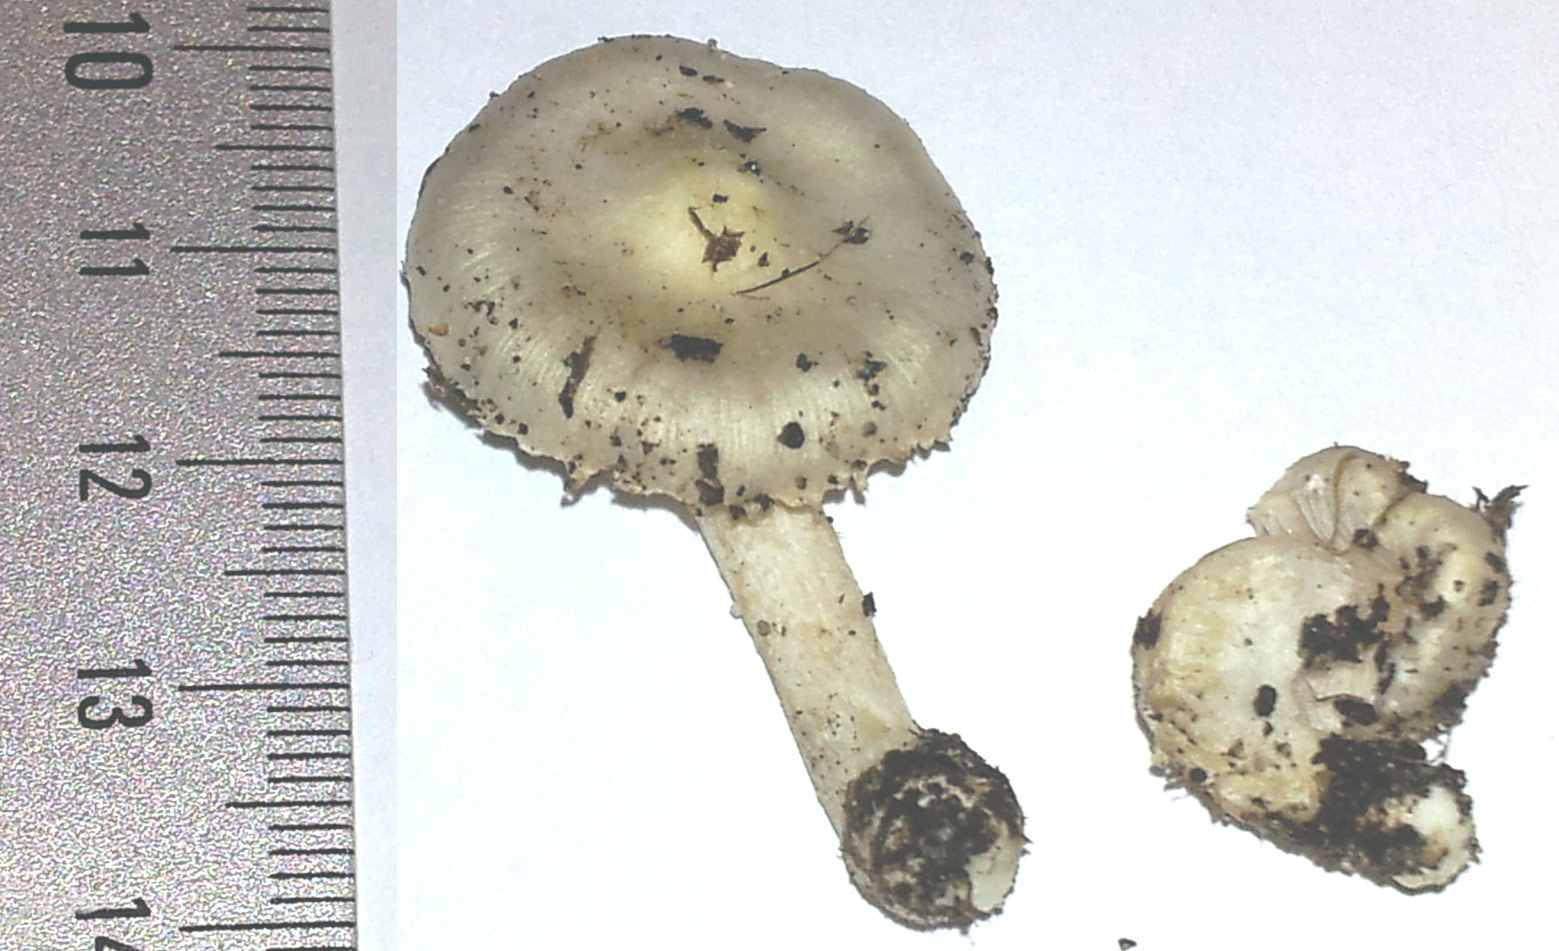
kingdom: Fungi
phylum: Basidiomycota
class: Agaricomycetes
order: Agaricales
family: Inocybaceae
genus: Inocybe
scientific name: Inocybe
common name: trævlhat
